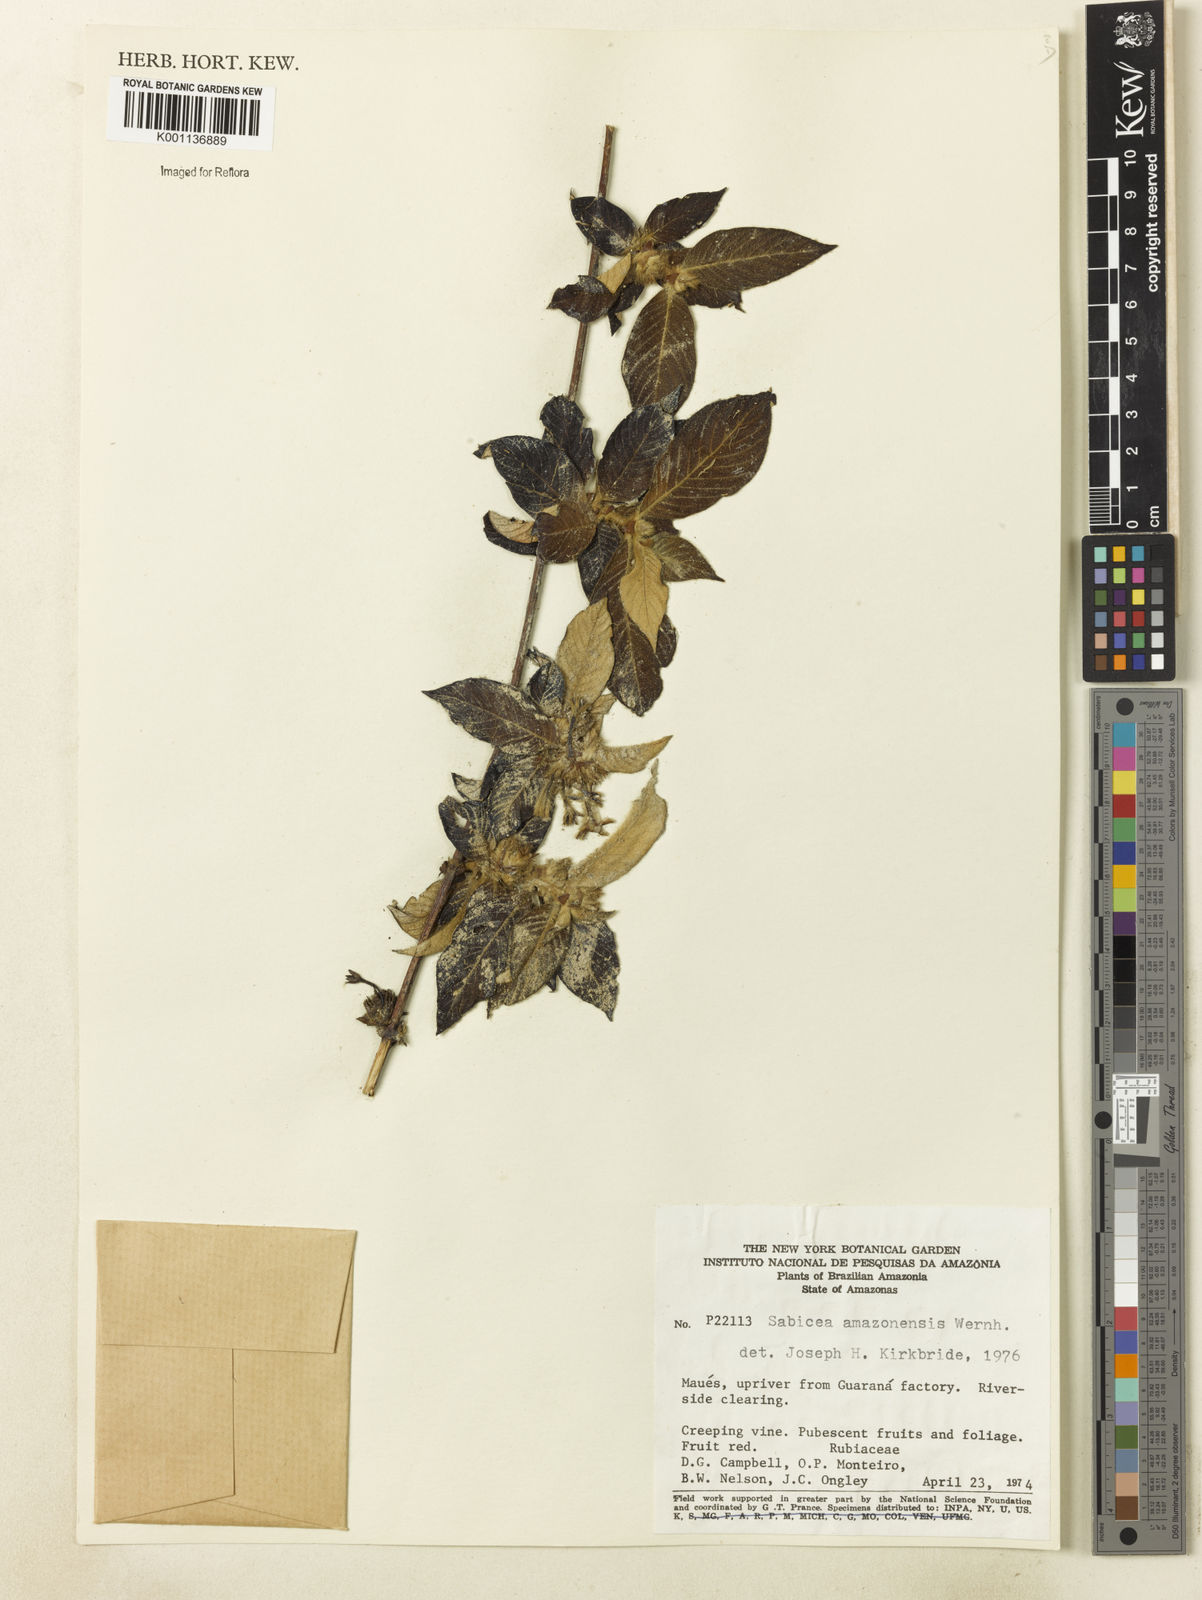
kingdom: Plantae
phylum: Tracheophyta
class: Magnoliopsida
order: Gentianales
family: Rubiaceae
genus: Sabicea
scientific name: Sabicea amazonensis
